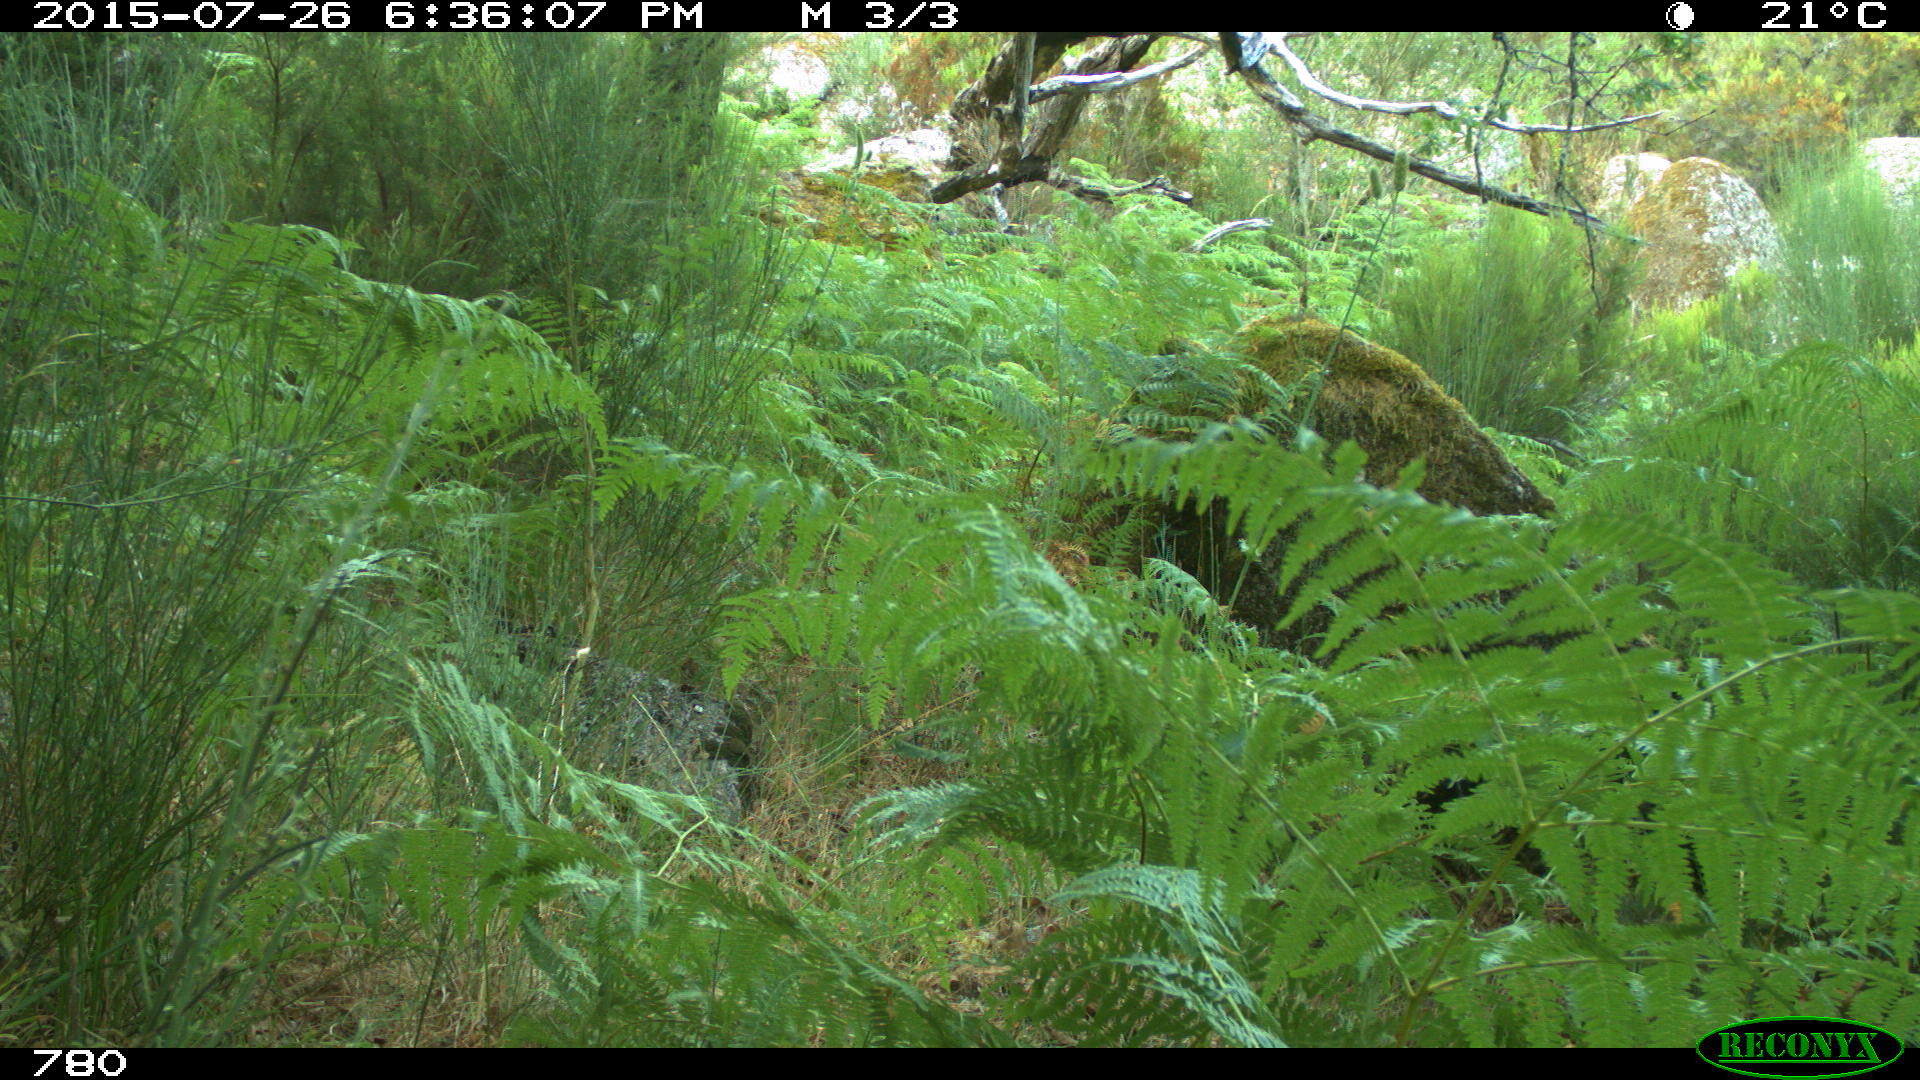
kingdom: Animalia
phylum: Chordata
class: Mammalia
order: Artiodactyla
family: Suidae
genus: Sus
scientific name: Sus scrofa
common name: Wild boar
